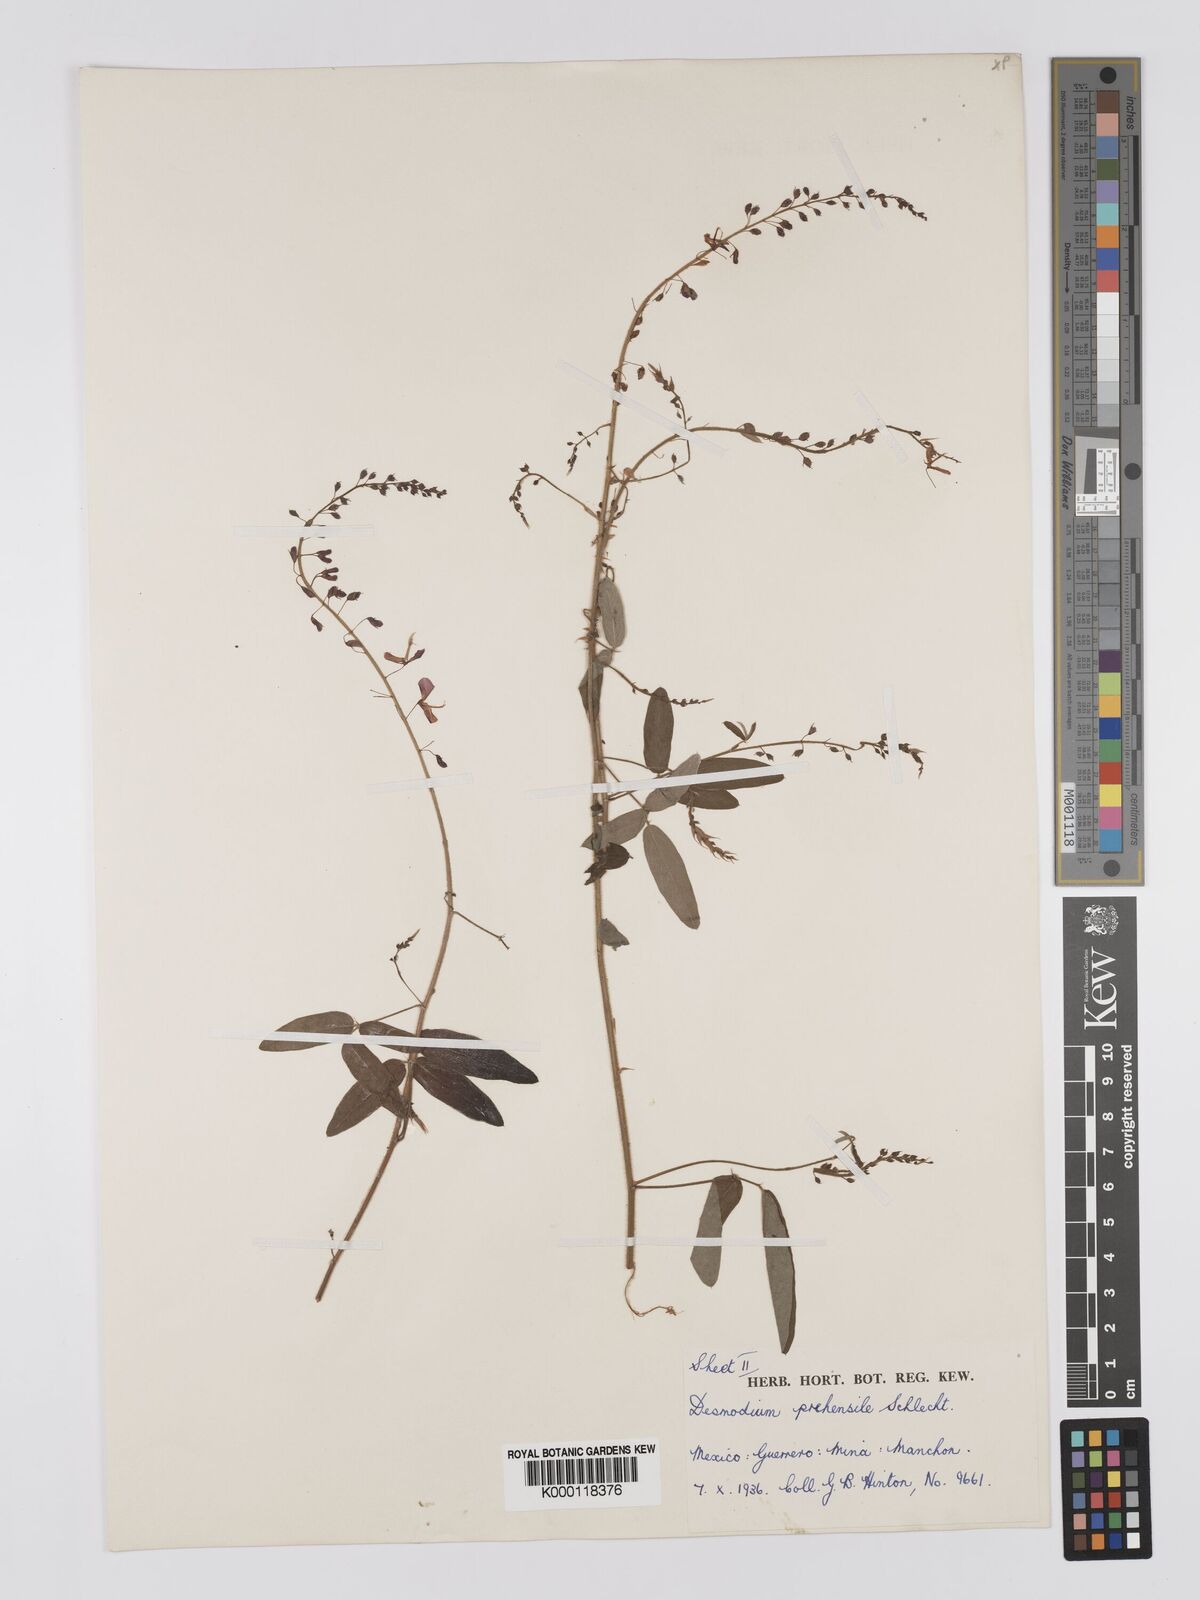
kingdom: Plantae
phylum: Tracheophyta
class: Magnoliopsida
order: Fabales
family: Fabaceae
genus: Desmodium
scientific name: Desmodium prehensile
